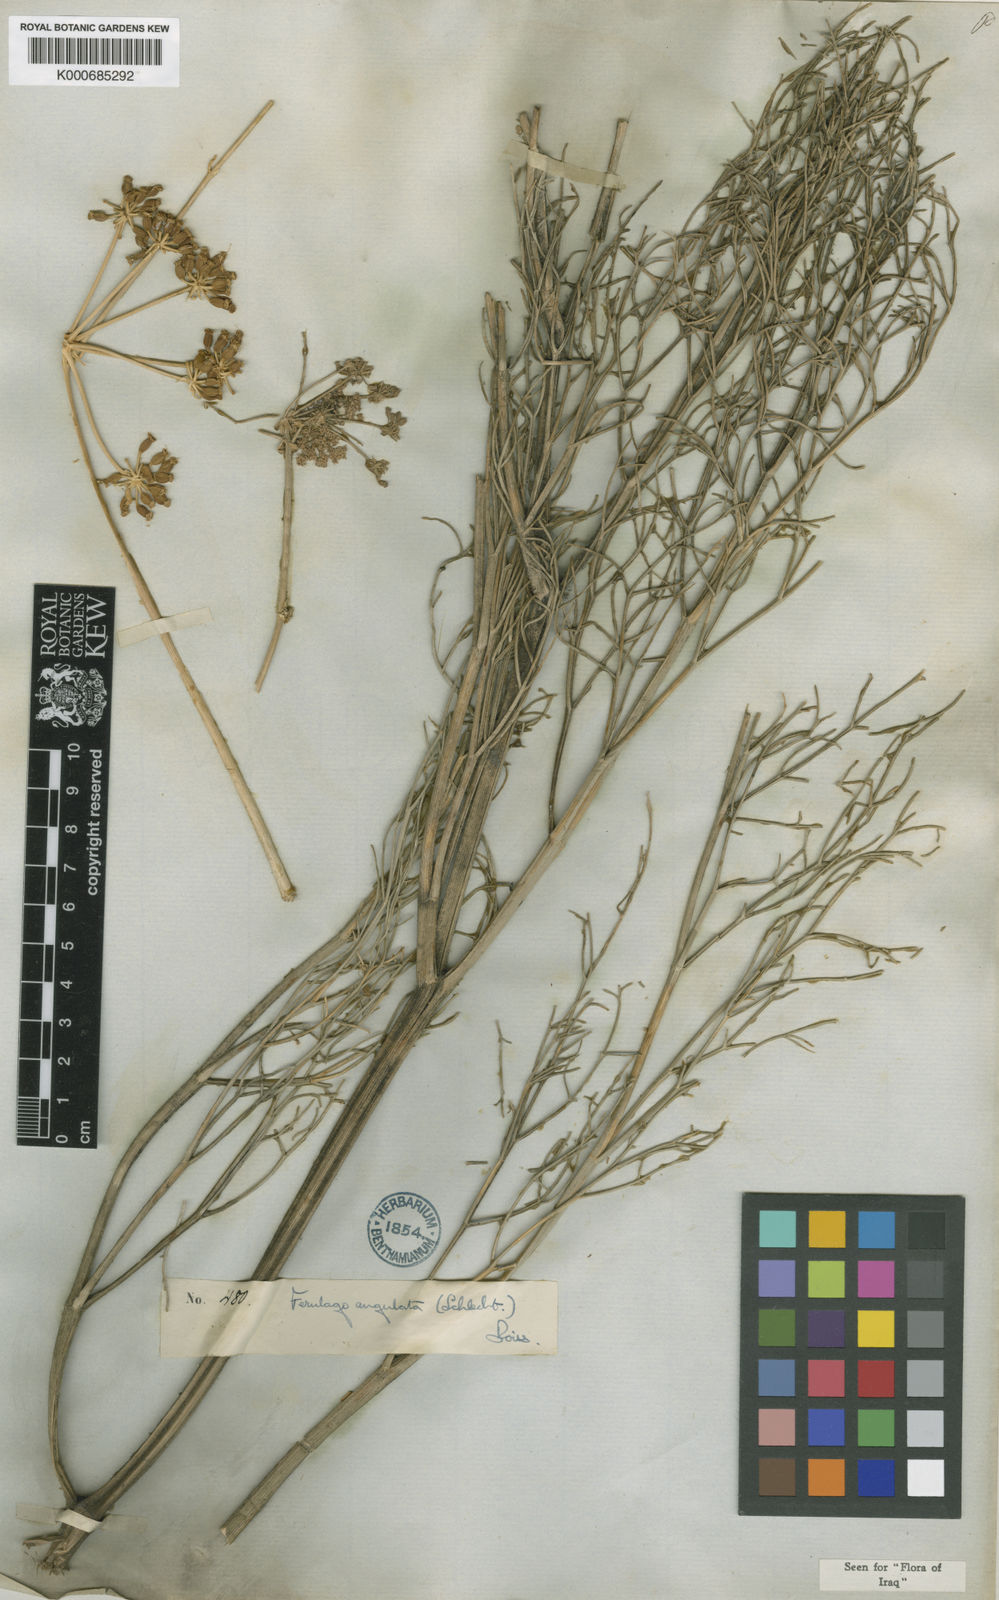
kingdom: Plantae
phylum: Tracheophyta
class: Magnoliopsida
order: Apiales
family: Apiaceae
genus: Ferulago
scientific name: Ferulago angulata
